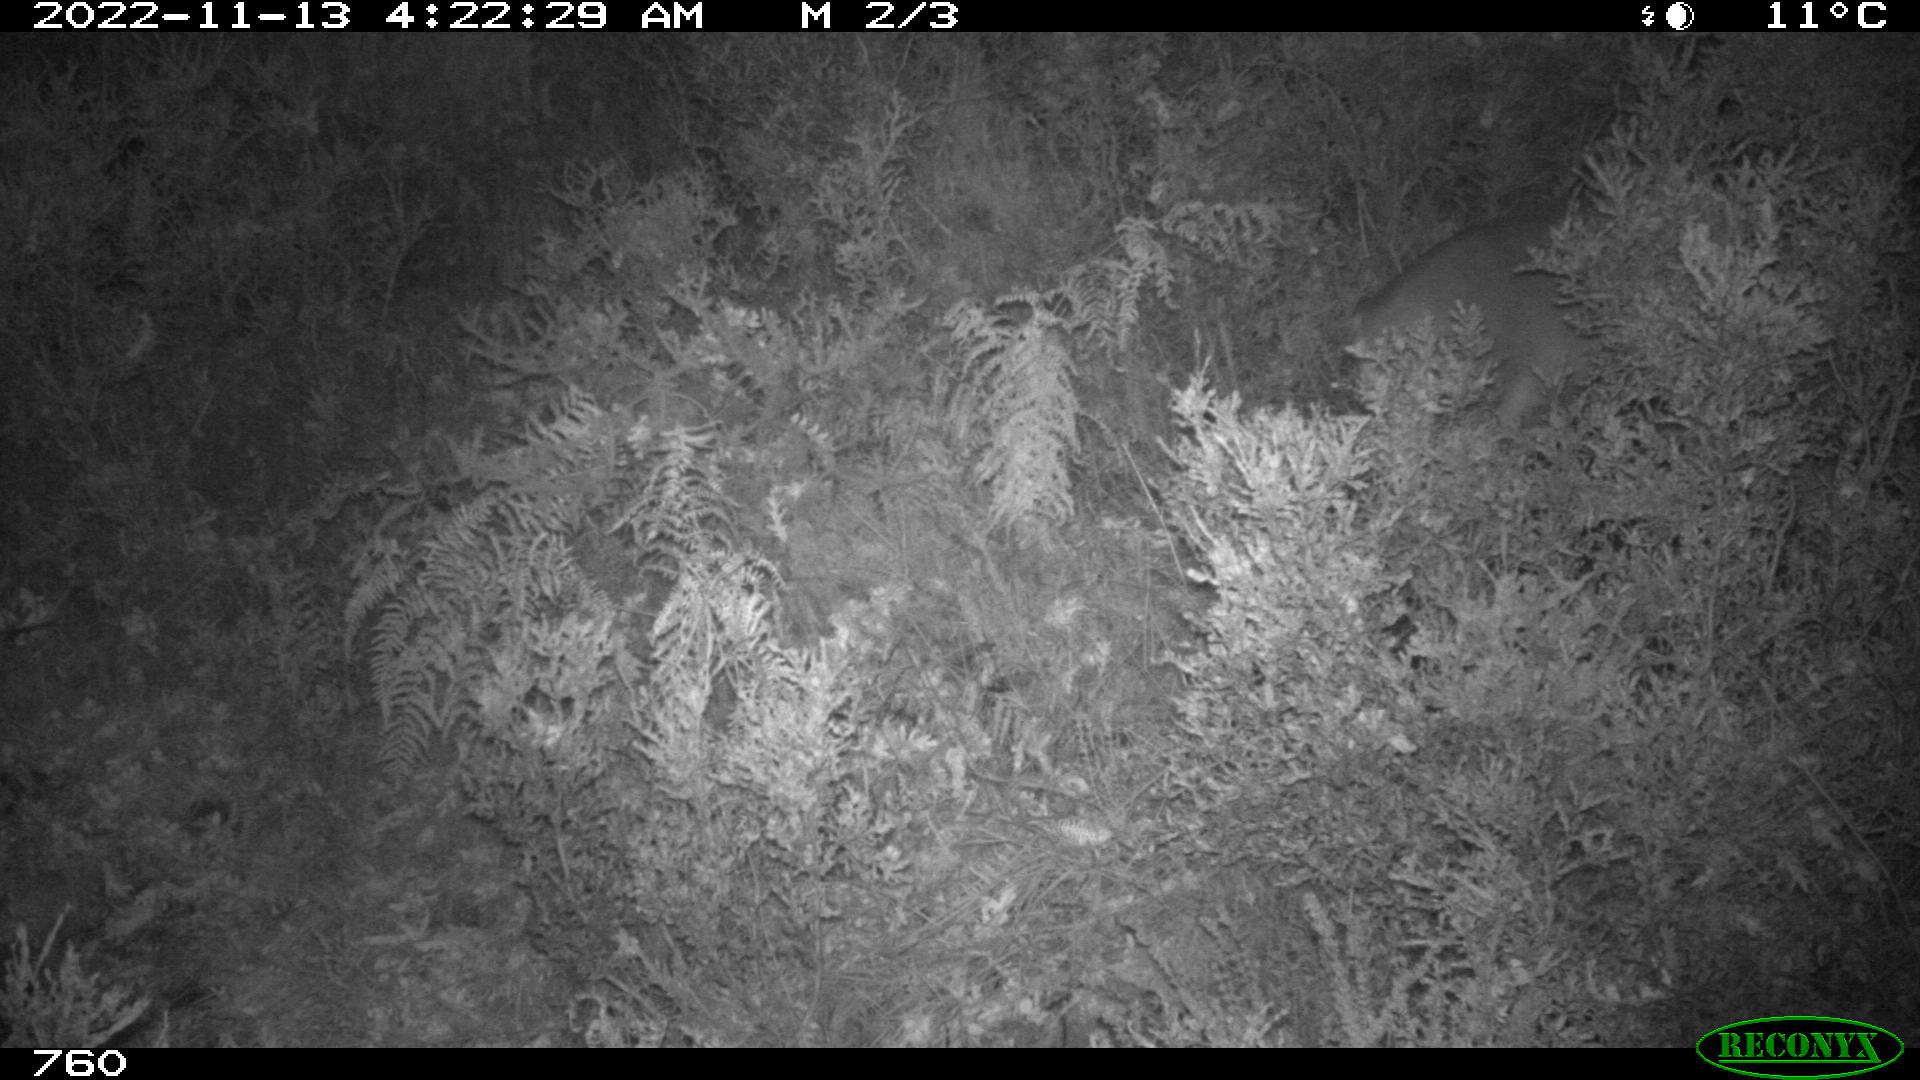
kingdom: Animalia
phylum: Chordata
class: Mammalia
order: Artiodactyla
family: Cervidae
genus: Capreolus
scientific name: Capreolus capreolus
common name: Western roe deer
